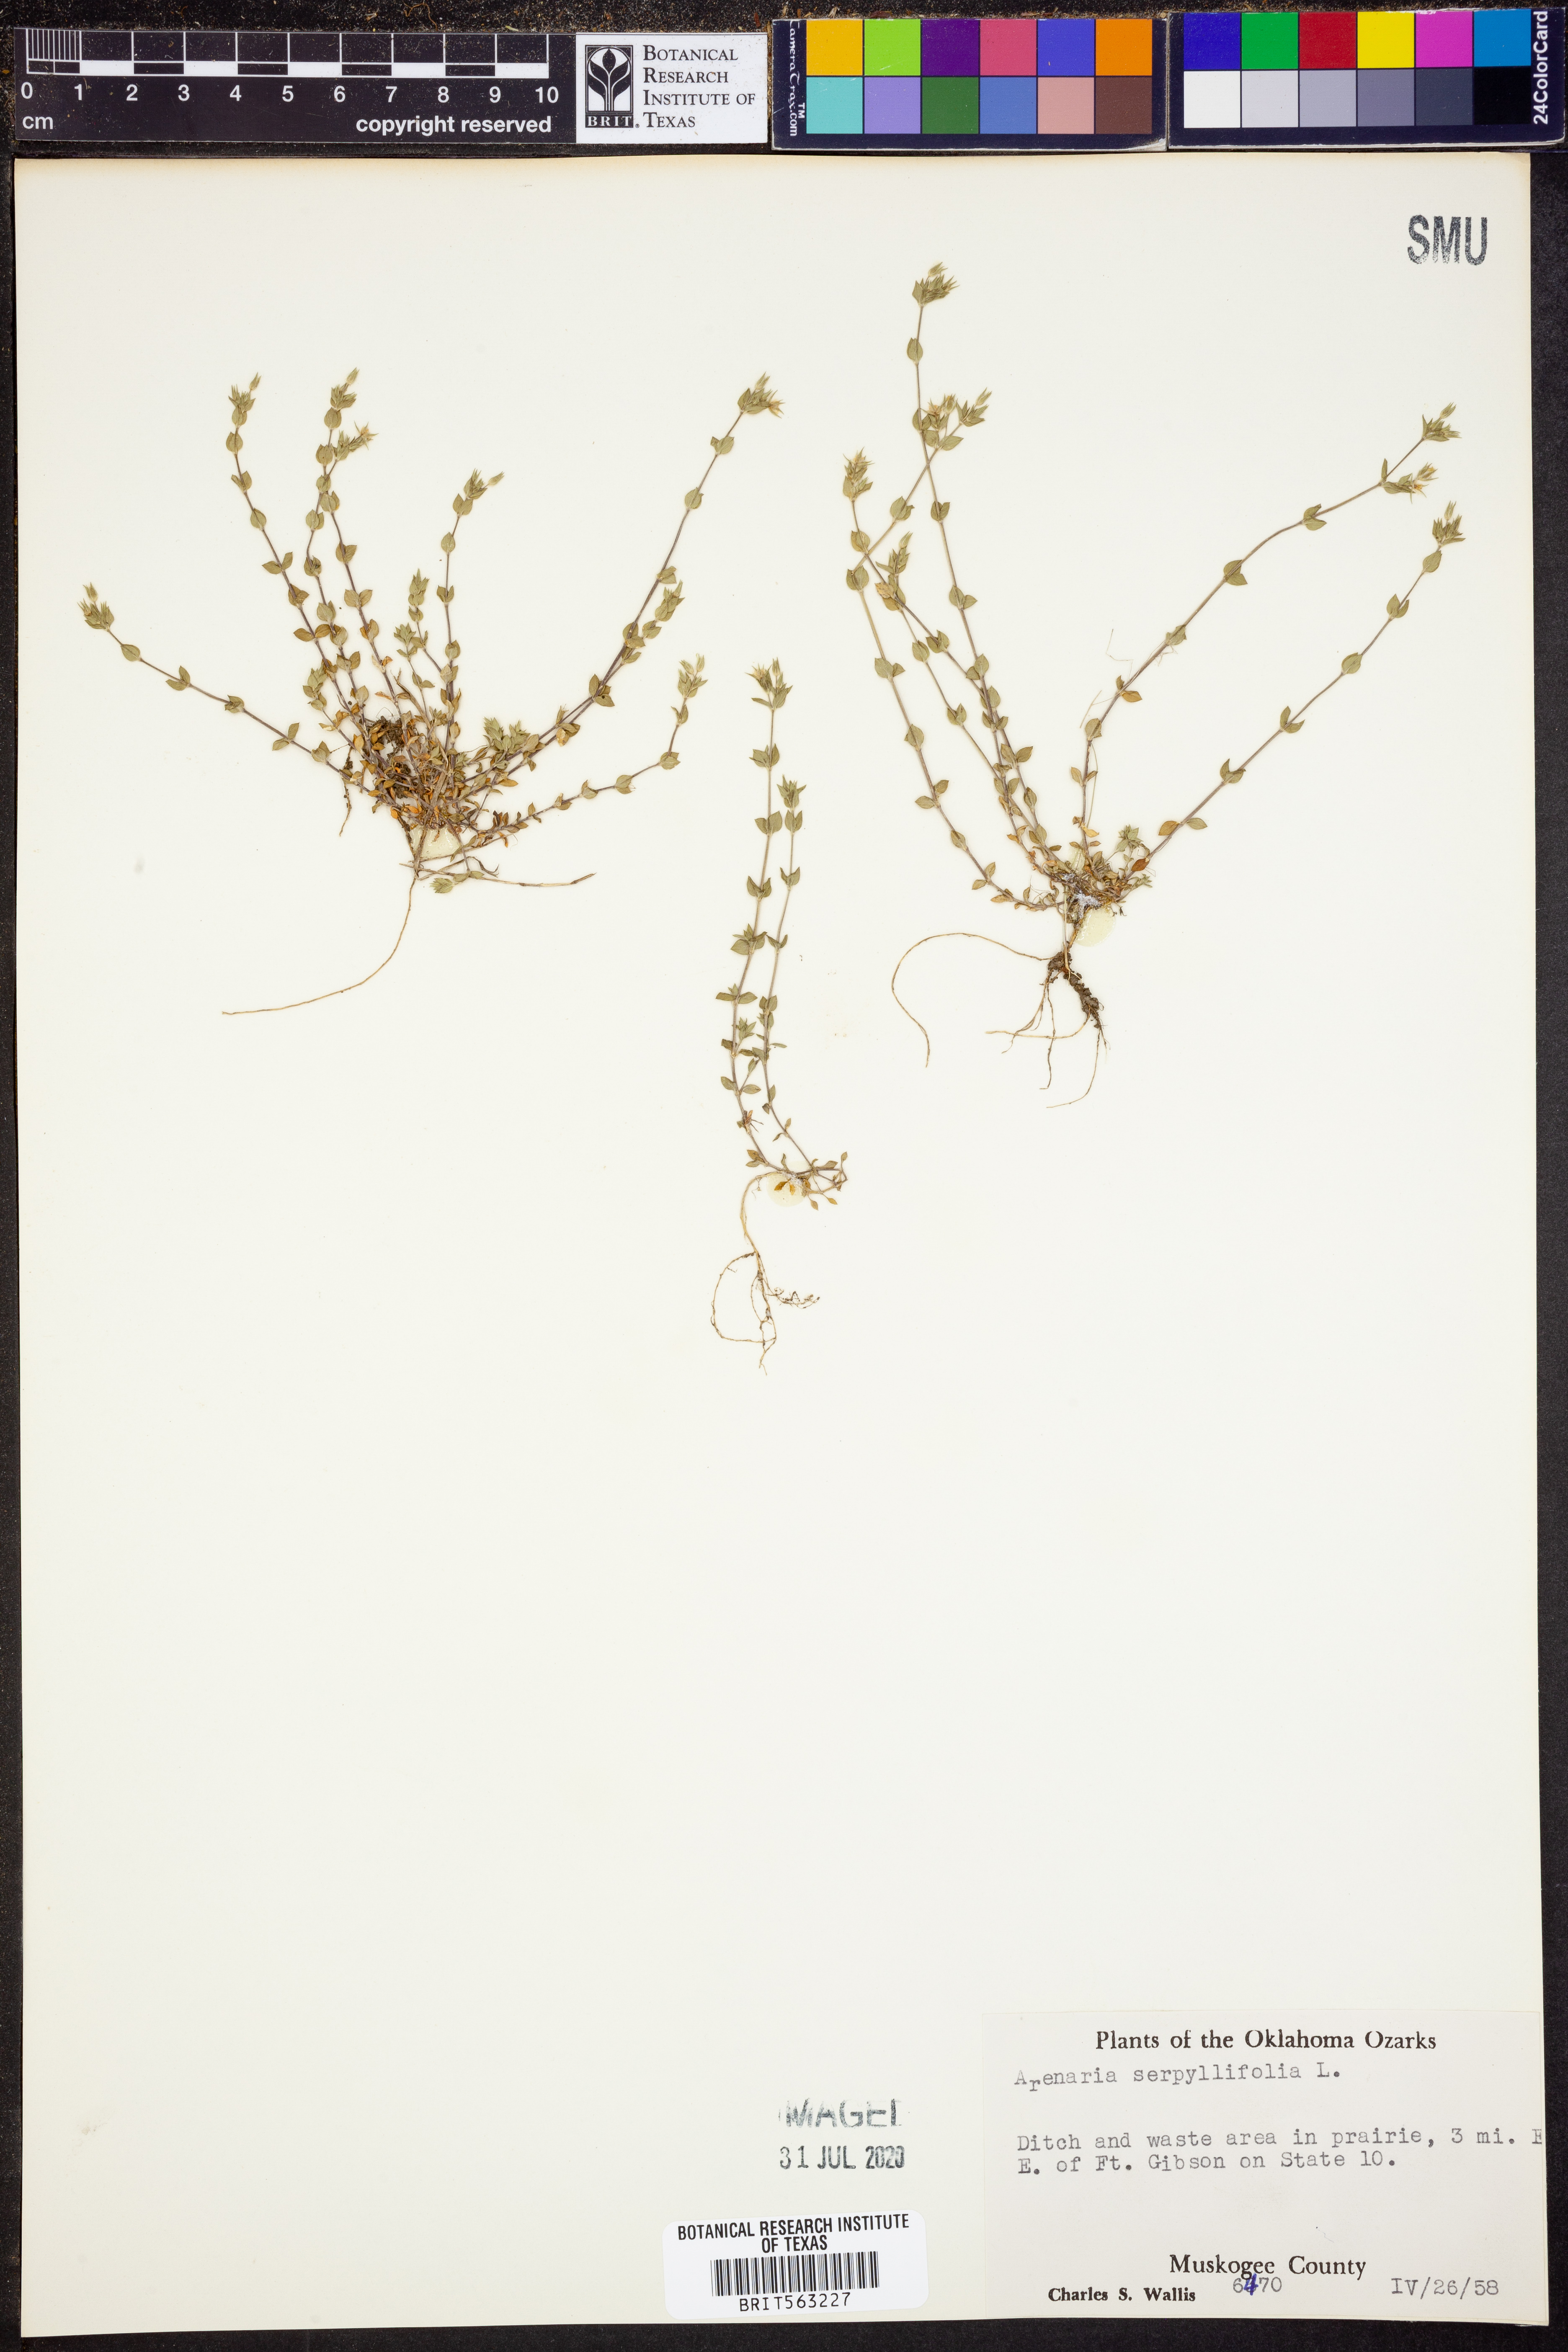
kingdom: Plantae
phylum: Tracheophyta
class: Magnoliopsida
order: Caryophyllales
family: Caryophyllaceae
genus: Arenaria
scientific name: Arenaria serpyllifolia
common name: Thyme-leaved sandwort
